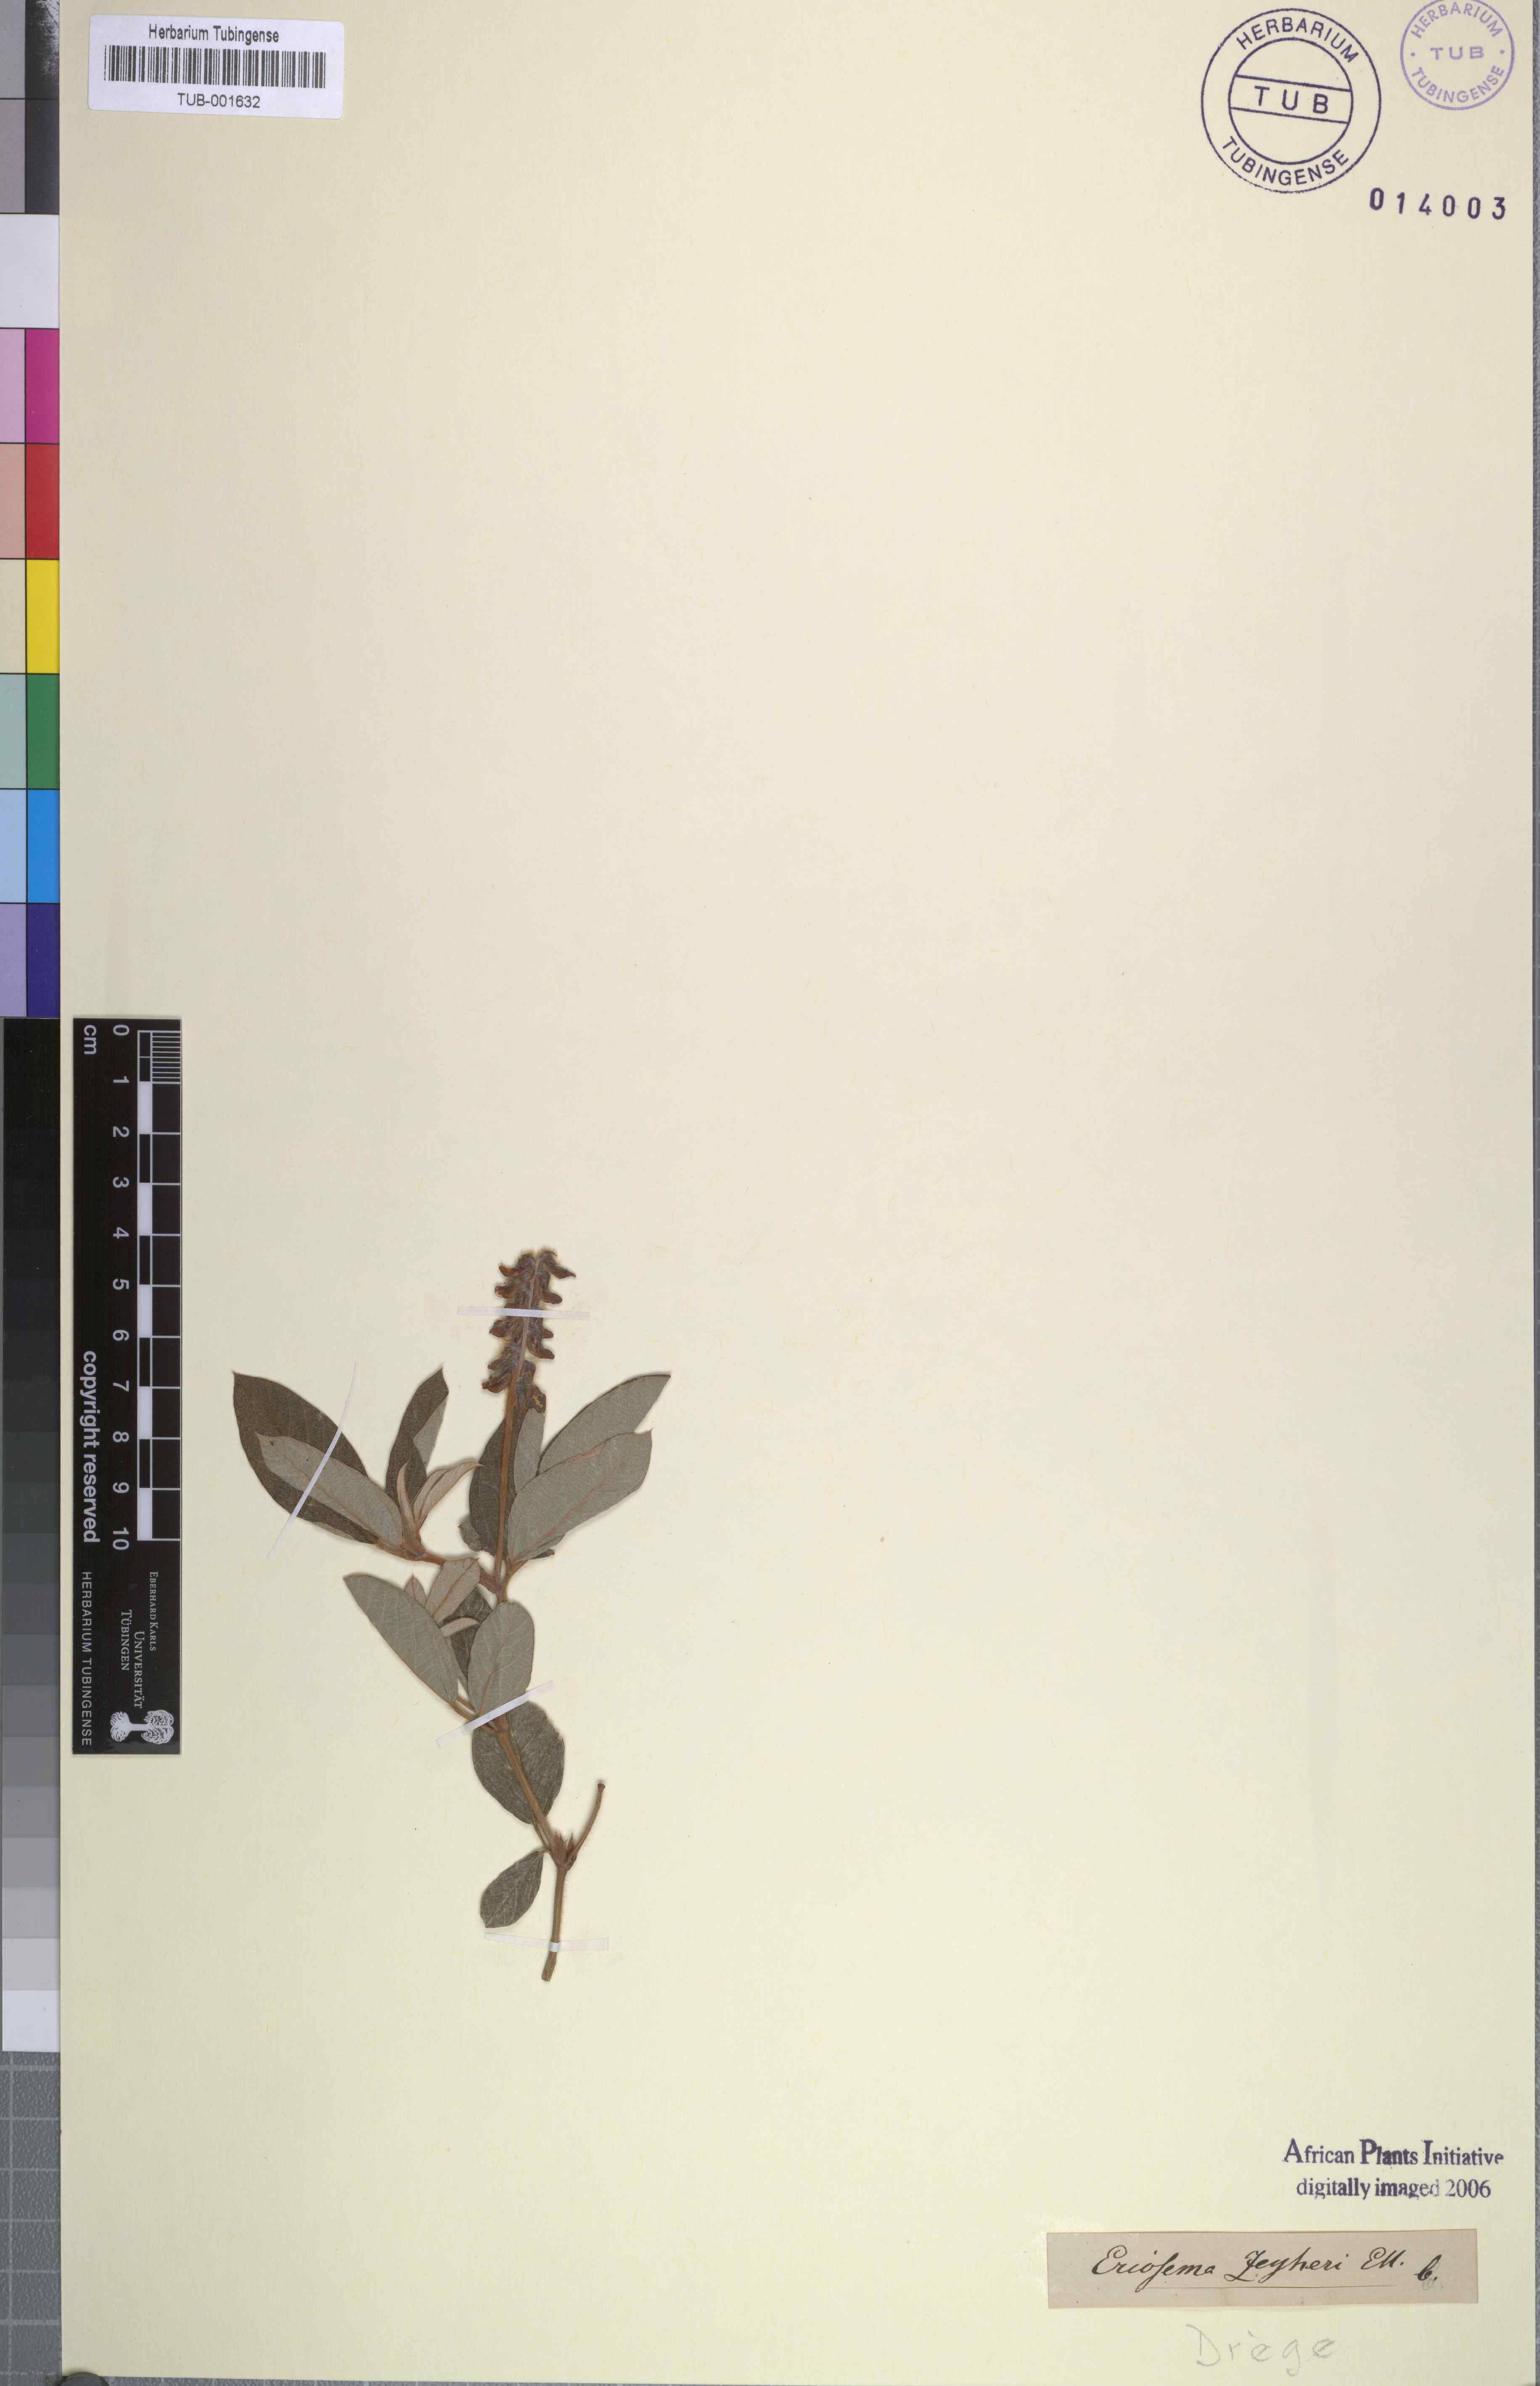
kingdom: Plantae
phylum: Tracheophyta
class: Magnoliopsida
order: Fabales
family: Fabaceae
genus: Eriosema
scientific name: Eriosema squarrosum
